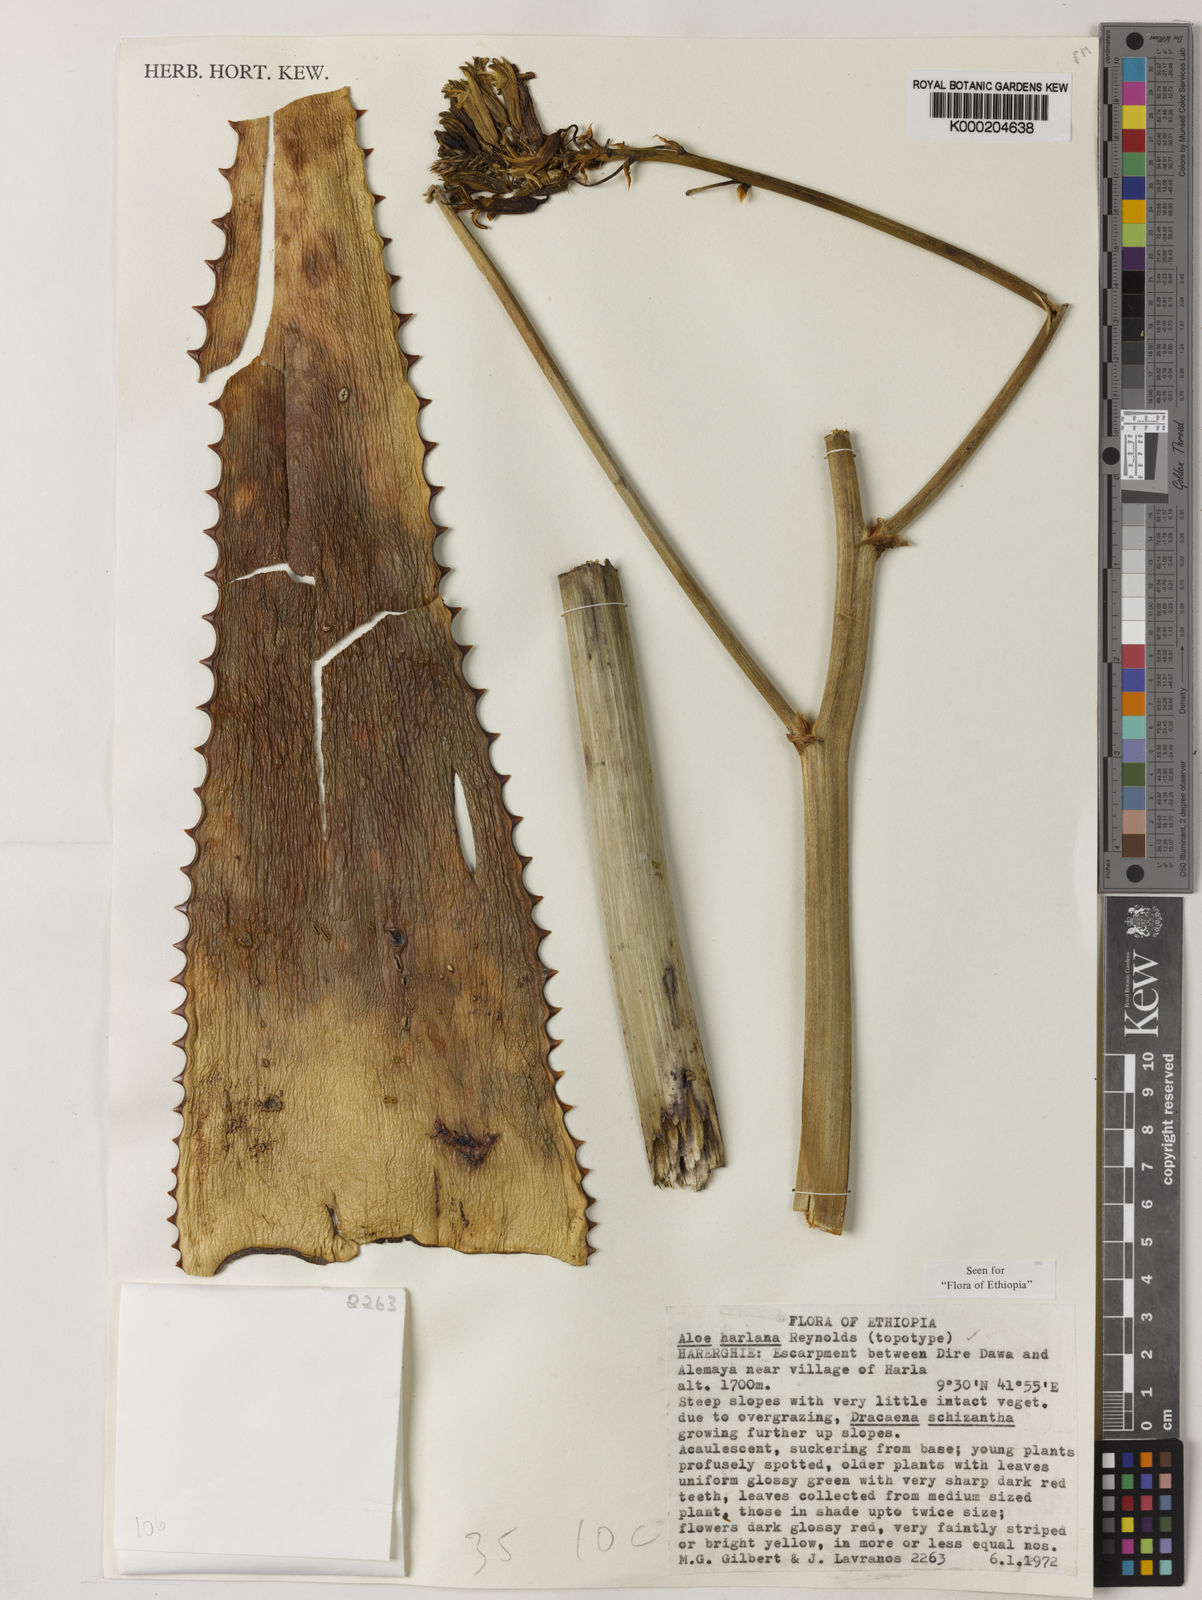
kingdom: Plantae
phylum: Tracheophyta
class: Liliopsida
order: Asparagales
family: Asphodelaceae
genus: Aloe
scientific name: Aloe harlana
